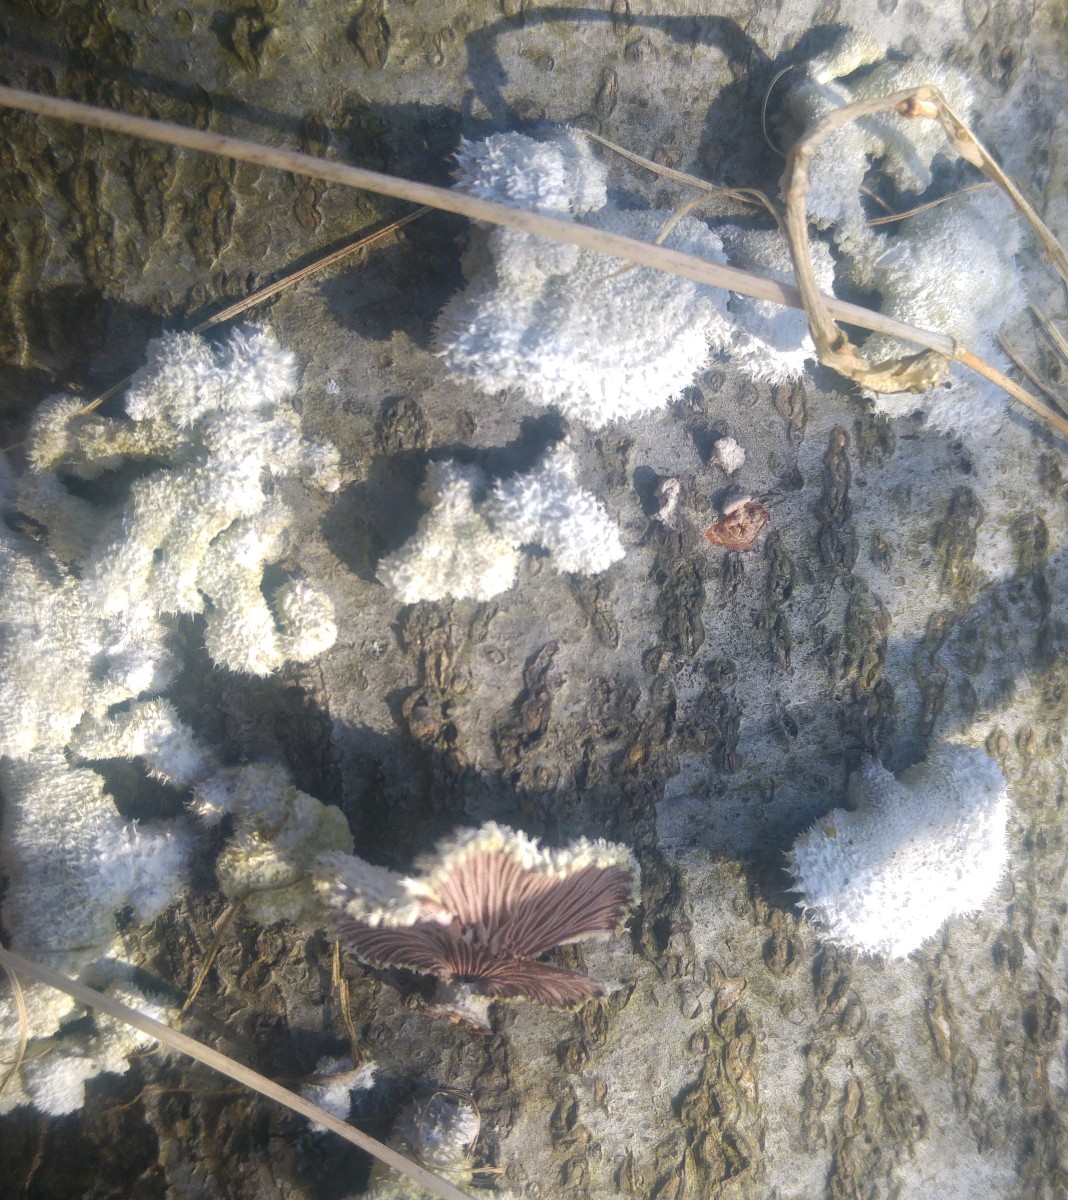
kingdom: Fungi
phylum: Basidiomycota
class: Agaricomycetes
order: Agaricales
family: Schizophyllaceae
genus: Schizophyllum
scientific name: Schizophyllum commune
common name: kløvblad
